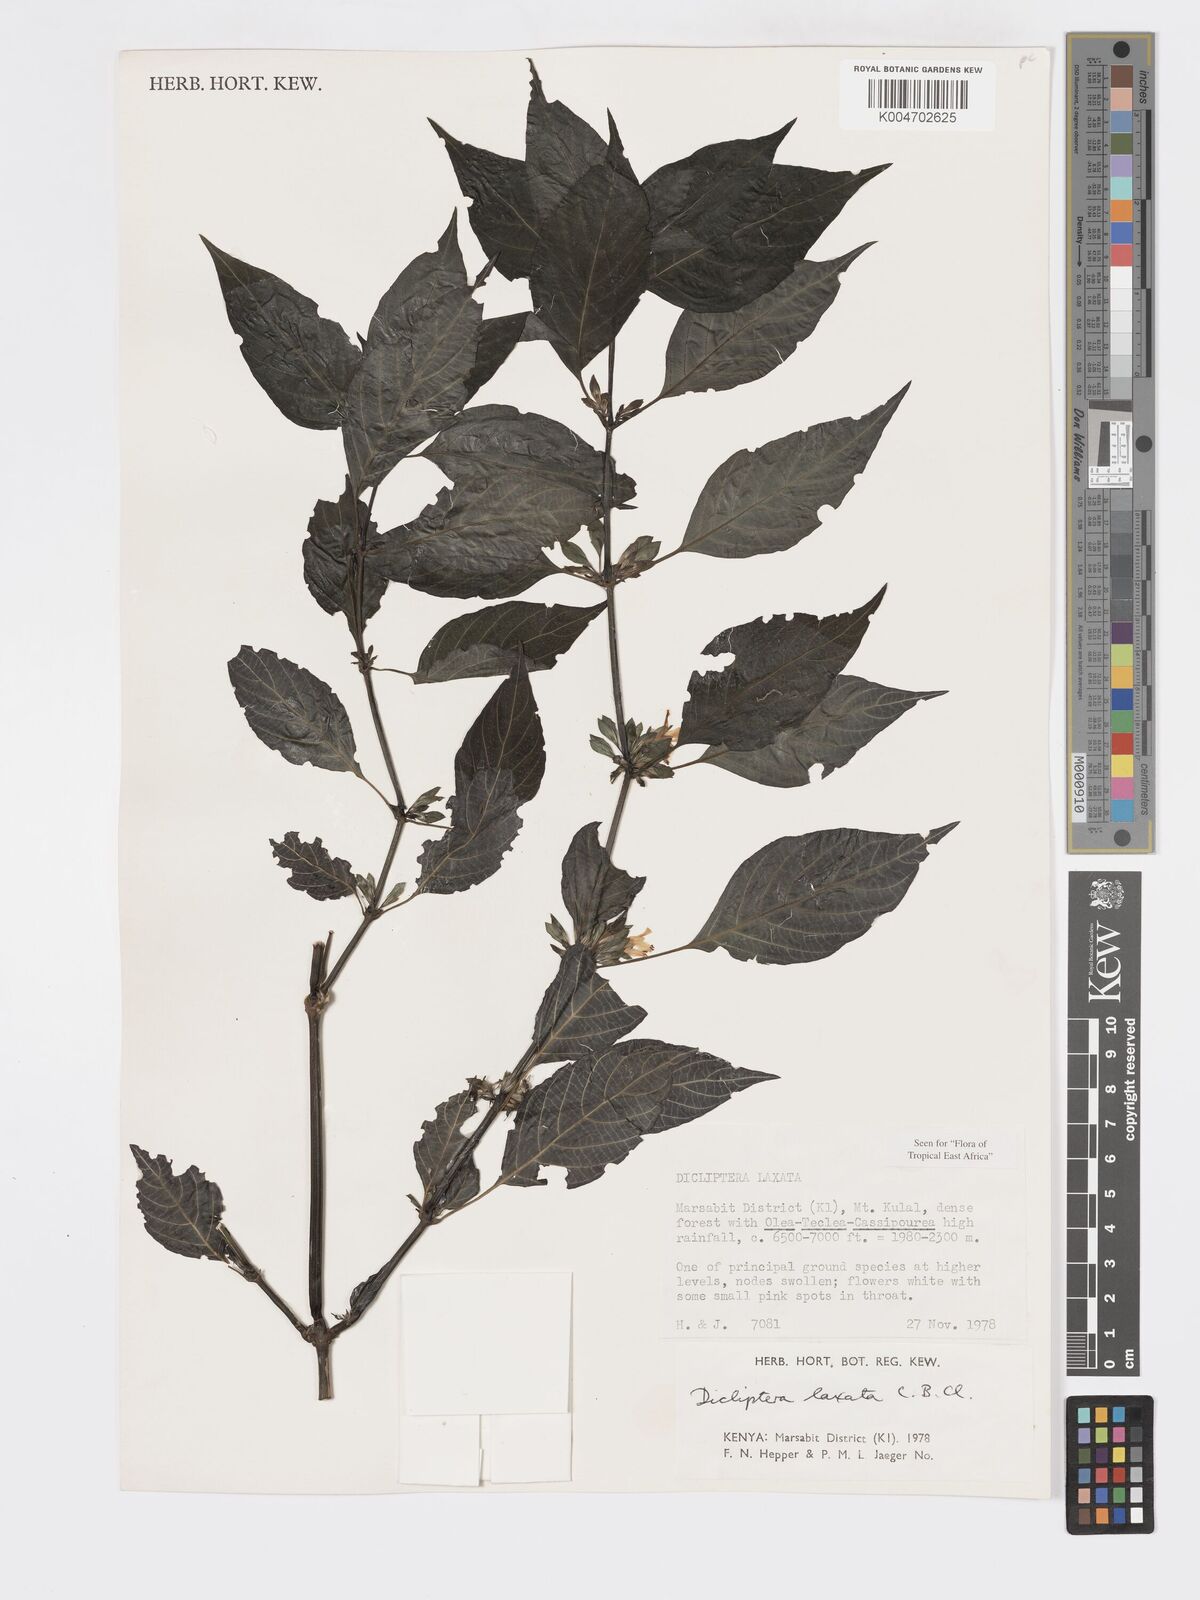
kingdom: Plantae
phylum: Tracheophyta
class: Magnoliopsida
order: Lamiales
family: Acanthaceae
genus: Dicliptera
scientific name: Dicliptera laxata
